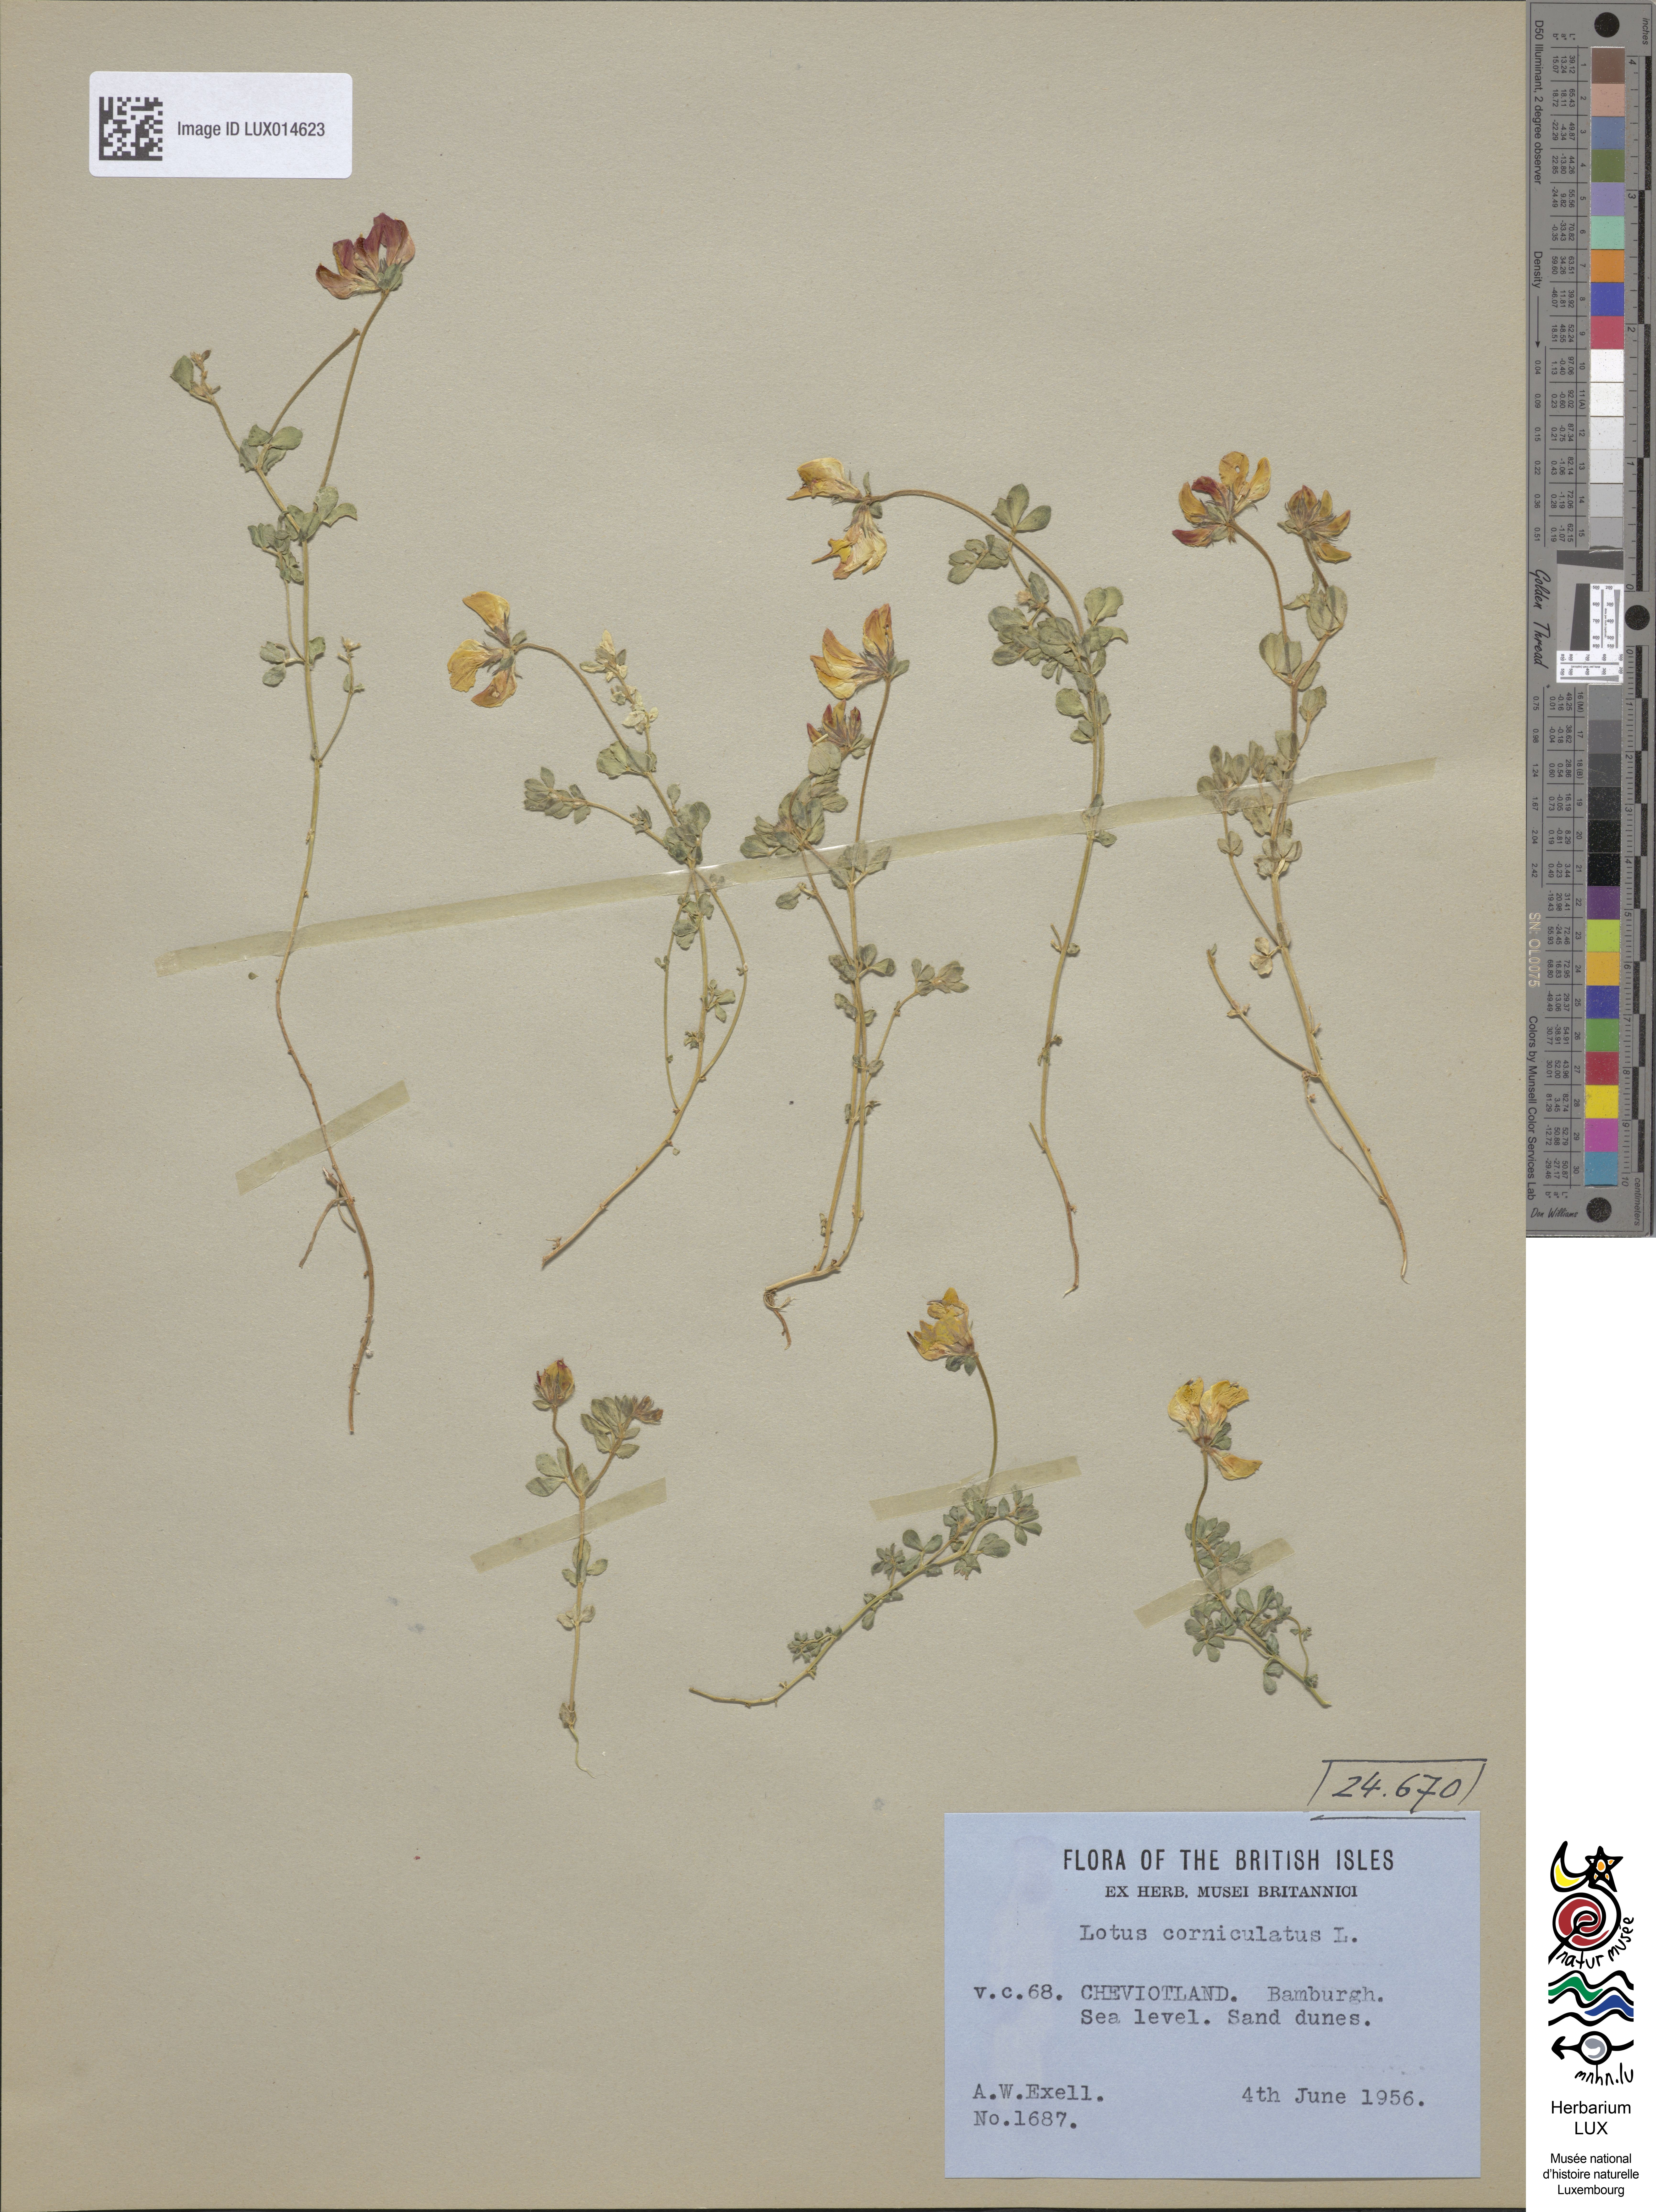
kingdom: Plantae
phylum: Tracheophyta
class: Magnoliopsida
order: Fabales
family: Fabaceae
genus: Lotus
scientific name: Lotus corniculatus
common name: Common bird's-foot-trefoil
